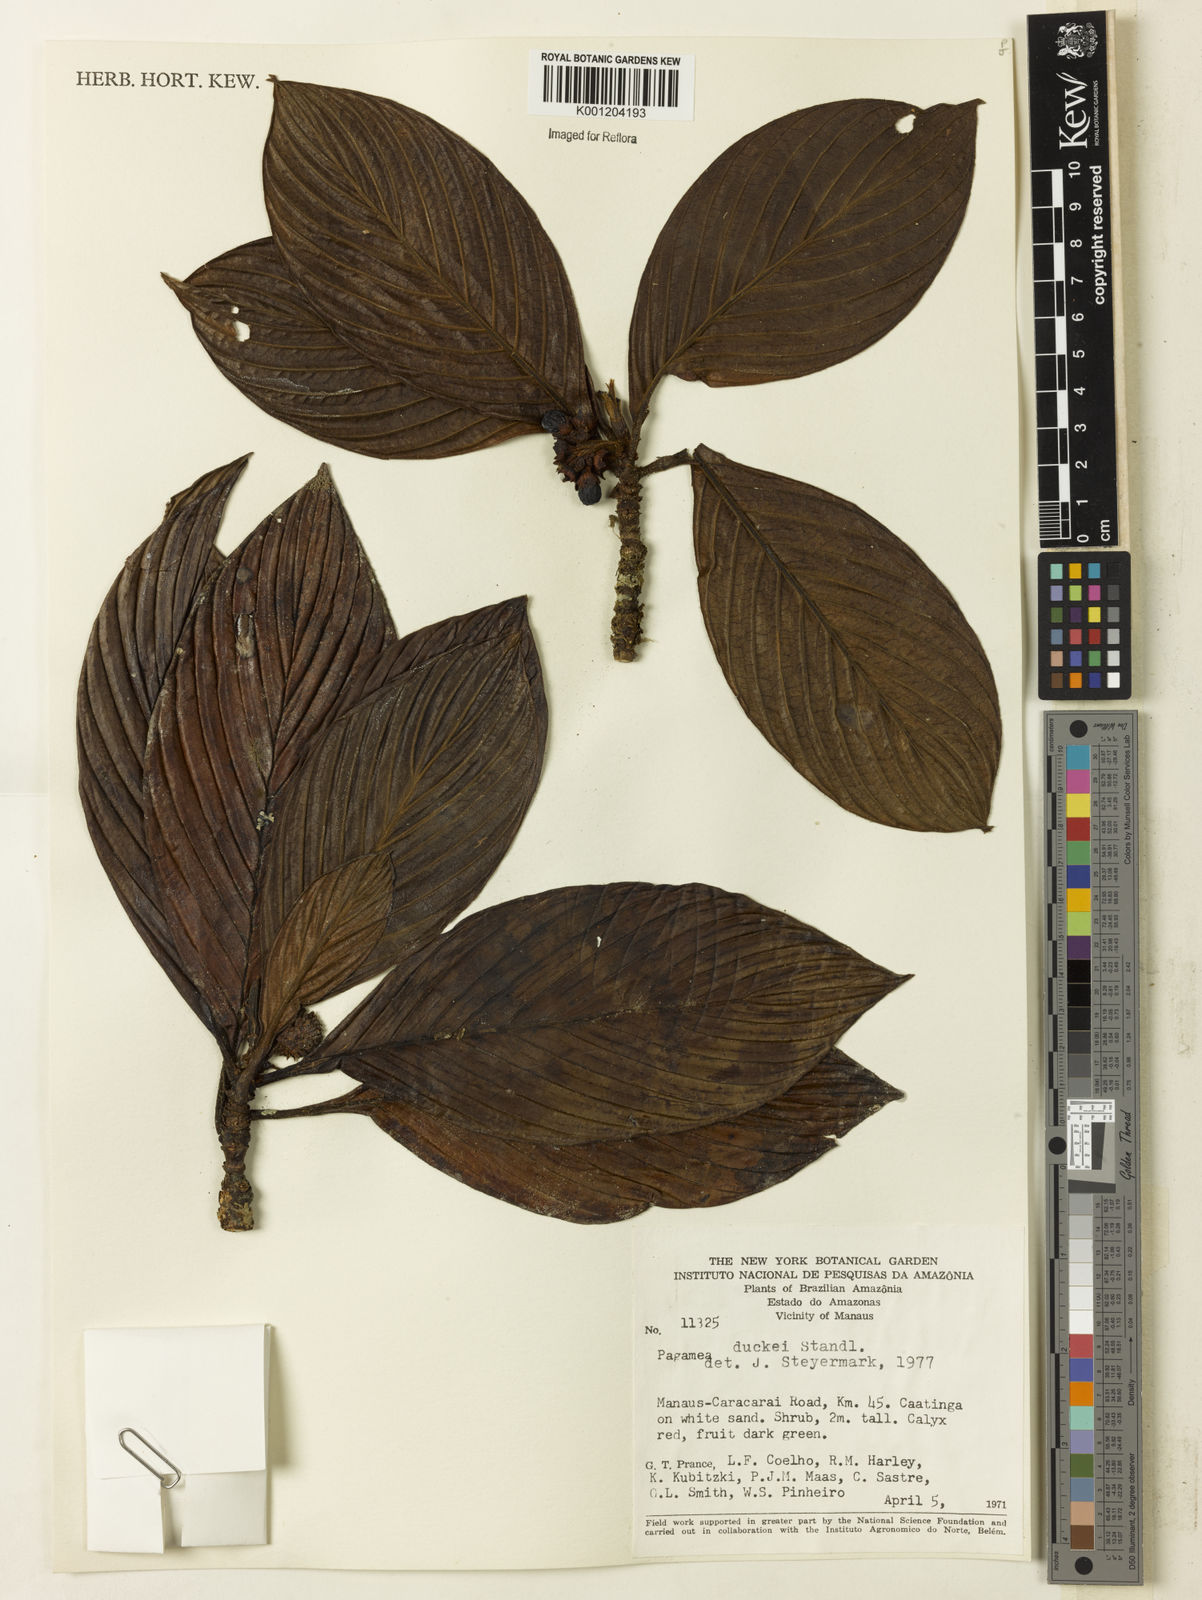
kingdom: Plantae
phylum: Tracheophyta
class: Magnoliopsida
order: Gentianales
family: Rubiaceae
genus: Pagamea
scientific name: Pagamea duckei
